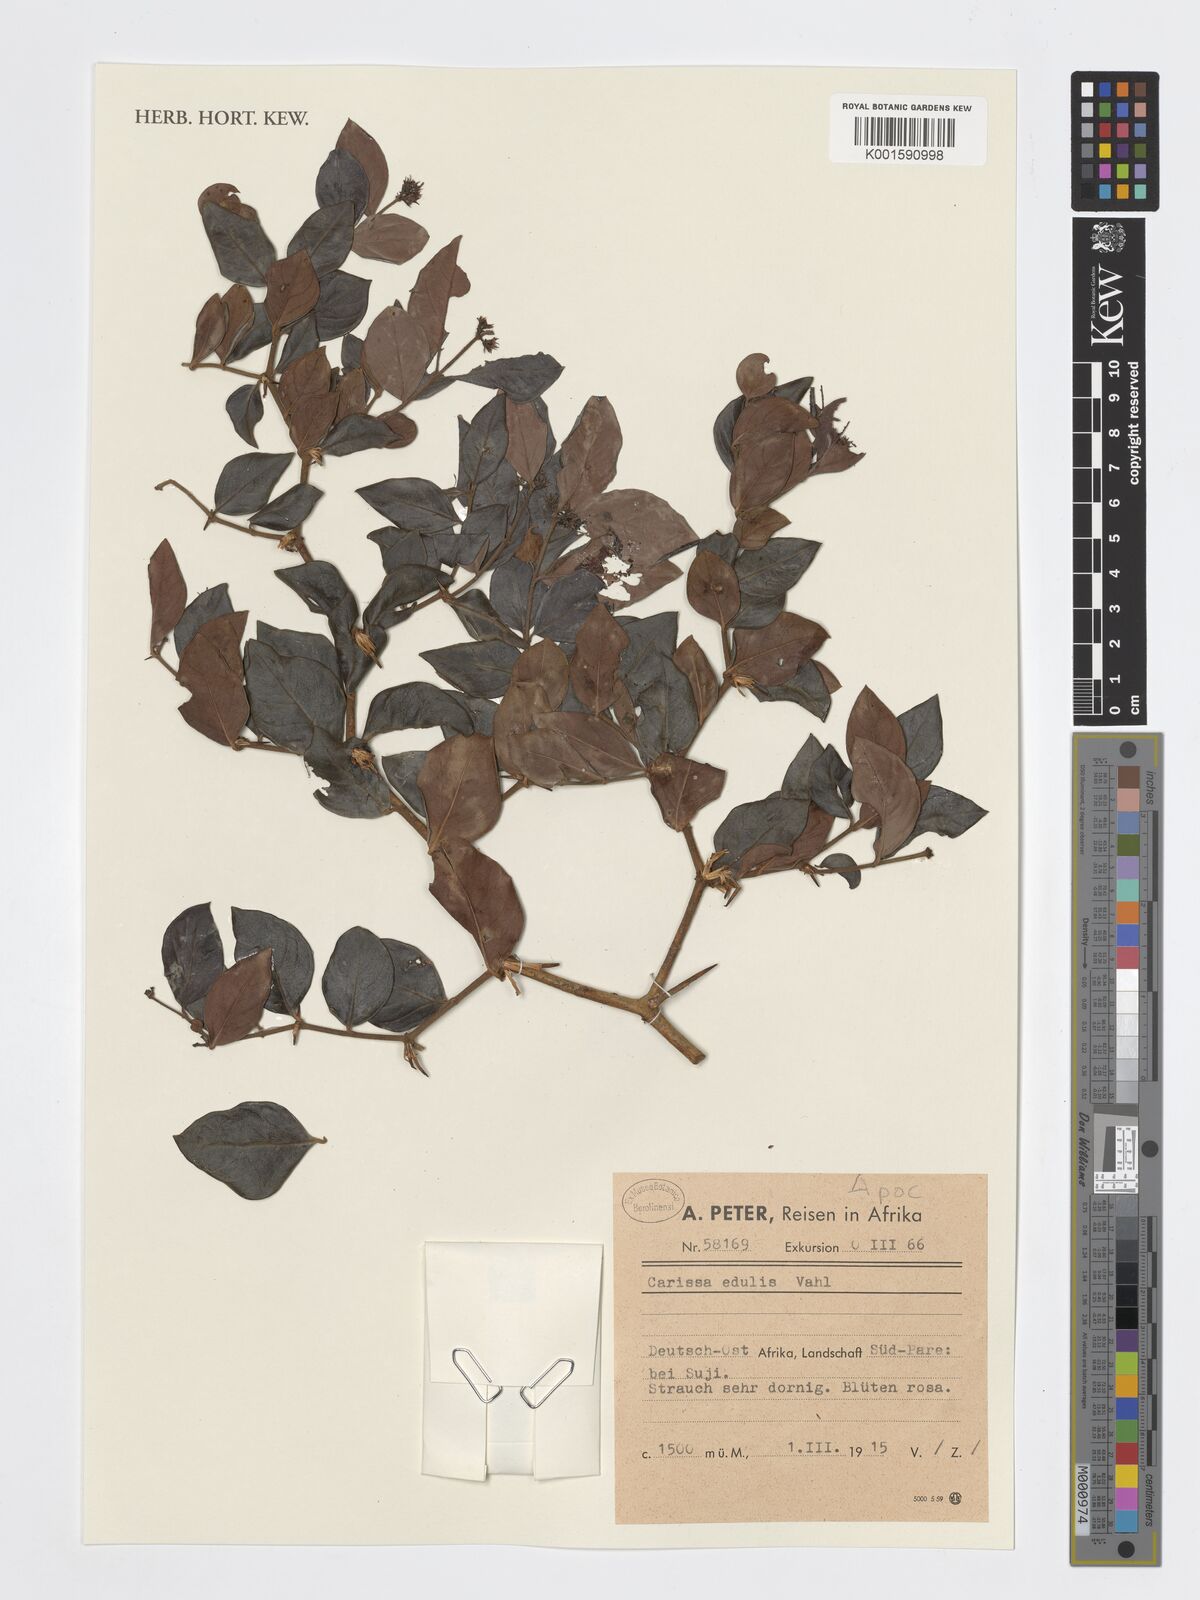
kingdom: Plantae
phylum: Tracheophyta
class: Magnoliopsida
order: Gentianales
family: Apocynaceae
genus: Carissa
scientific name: Carissa spinarum
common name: Egyptian carissa
